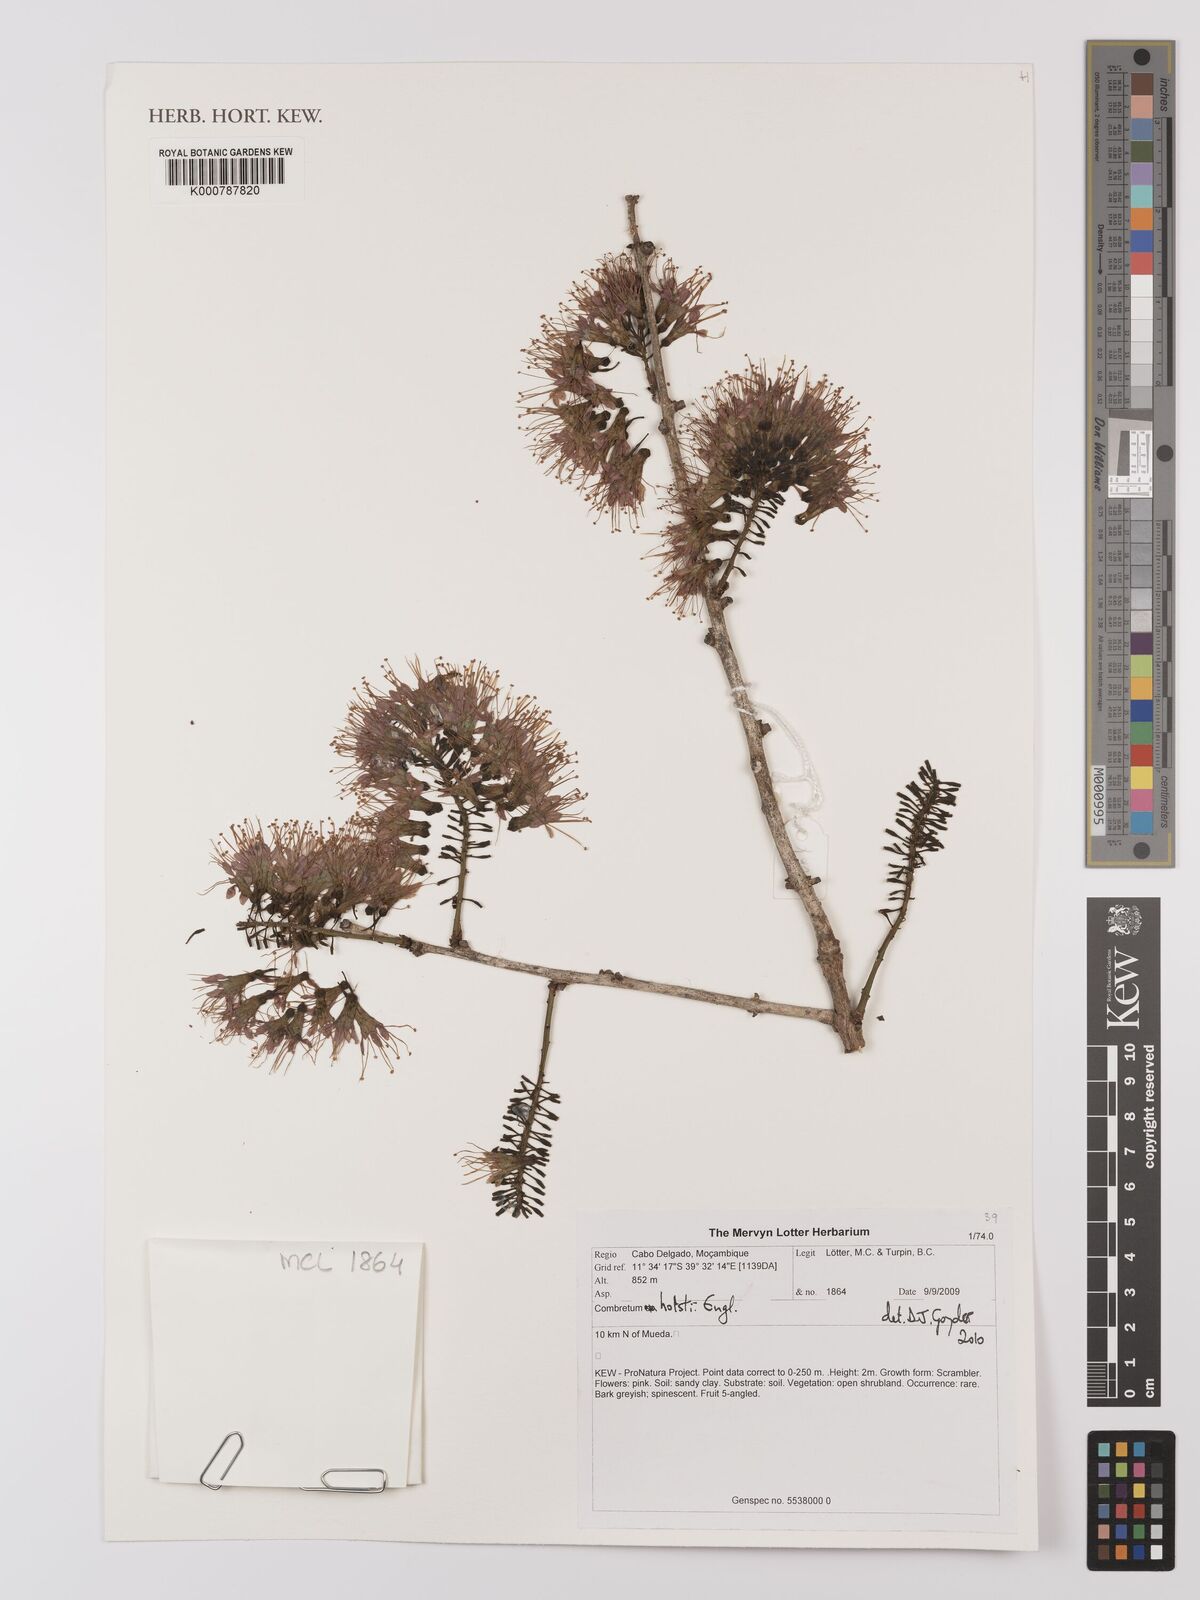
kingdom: Plantae
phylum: Tracheophyta
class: Magnoliopsida
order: Myrtales
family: Combretaceae
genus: Combretum
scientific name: Combretum holstii
